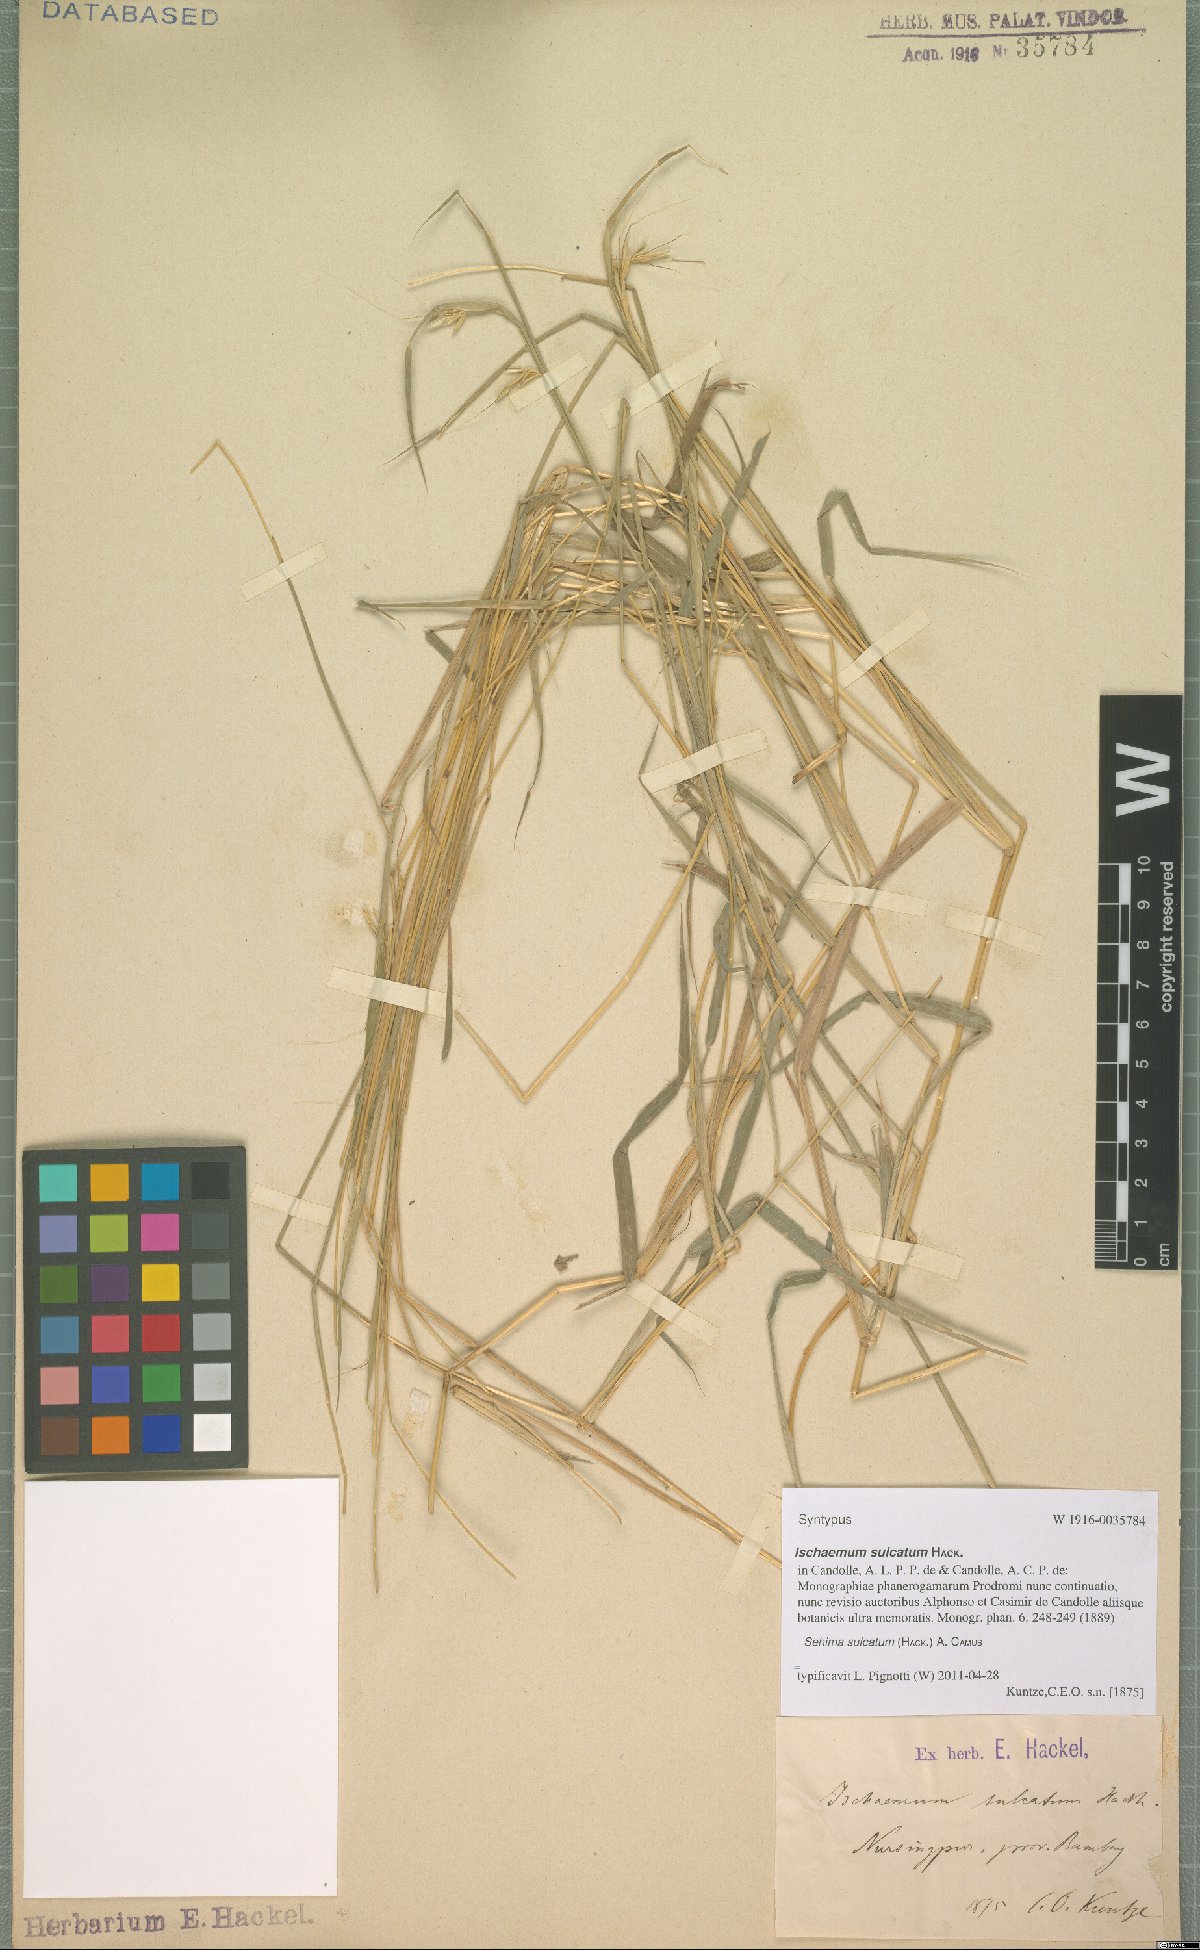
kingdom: Plantae
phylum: Tracheophyta
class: Liliopsida
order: Poales
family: Poaceae
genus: Sehima
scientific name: Sehima sulcata
